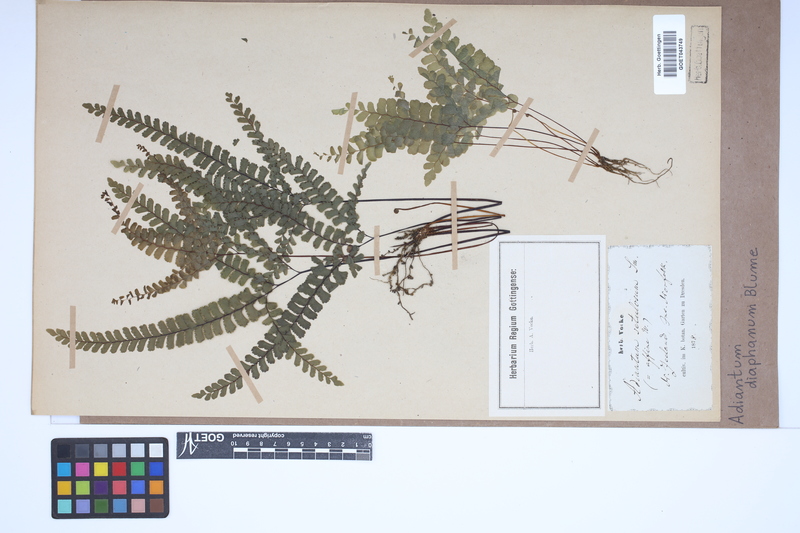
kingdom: Plantae
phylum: Tracheophyta
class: Polypodiopsida
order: Polypodiales
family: Pteridaceae
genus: Adiantum
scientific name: Adiantum diaphanum
